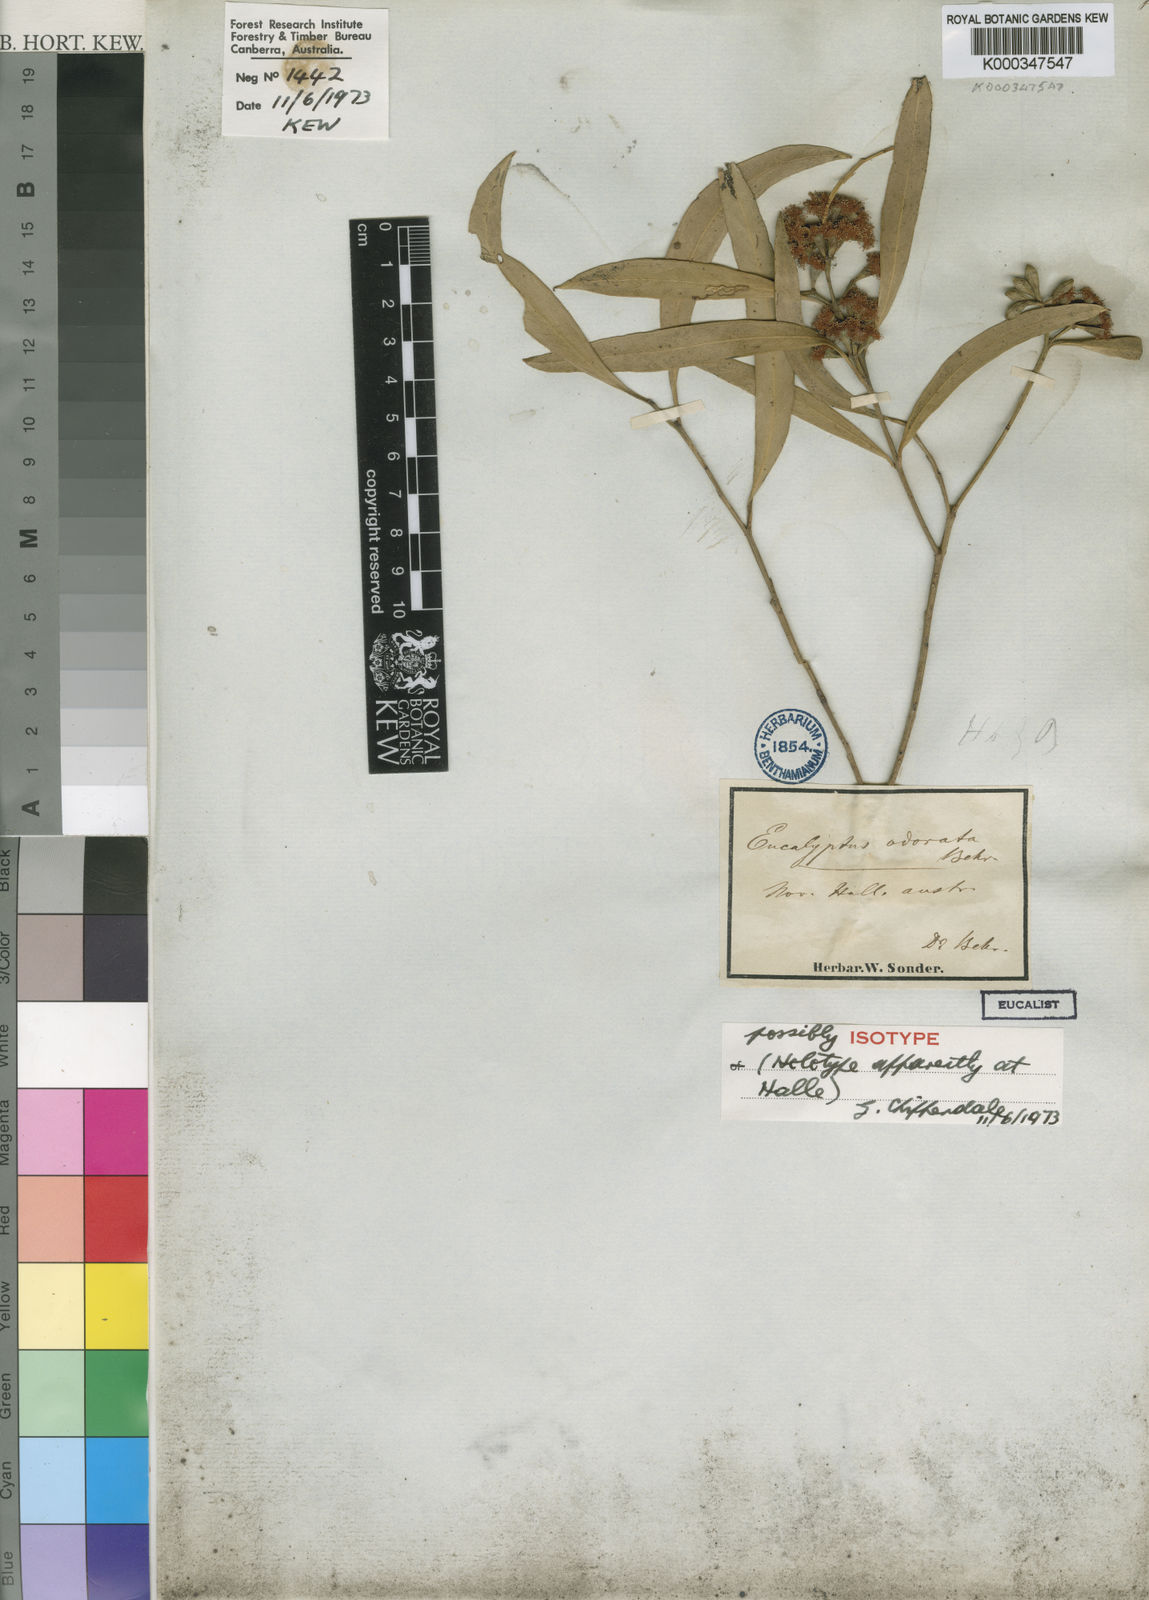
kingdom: Plantae
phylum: Tracheophyta
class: Magnoliopsida
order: Myrtales
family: Myrtaceae
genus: Eucalyptus
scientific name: Eucalyptus odorata
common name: Peppermint box
